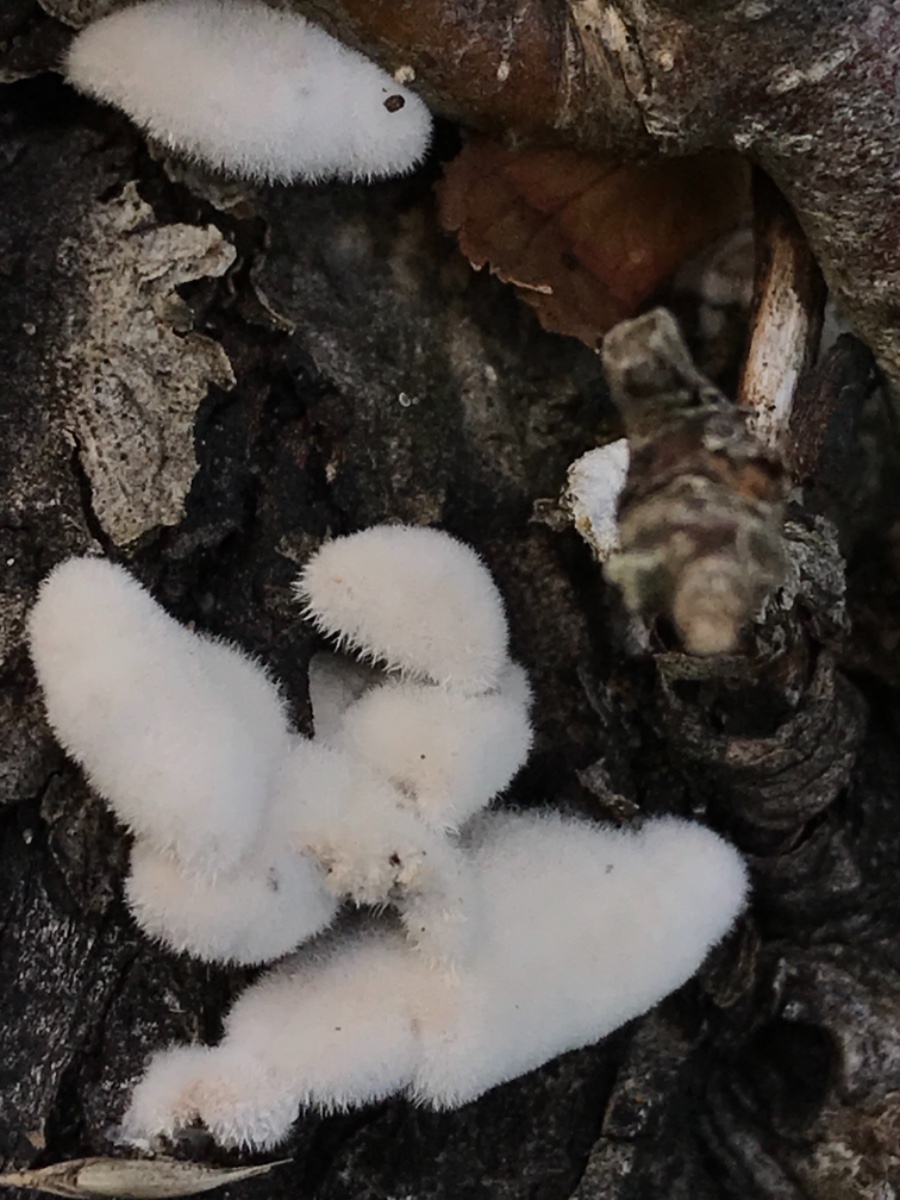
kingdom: Fungi
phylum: Basidiomycota
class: Agaricomycetes
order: Agaricales
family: Schizophyllaceae
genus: Schizophyllum
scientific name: Schizophyllum commune
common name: kløvblad
